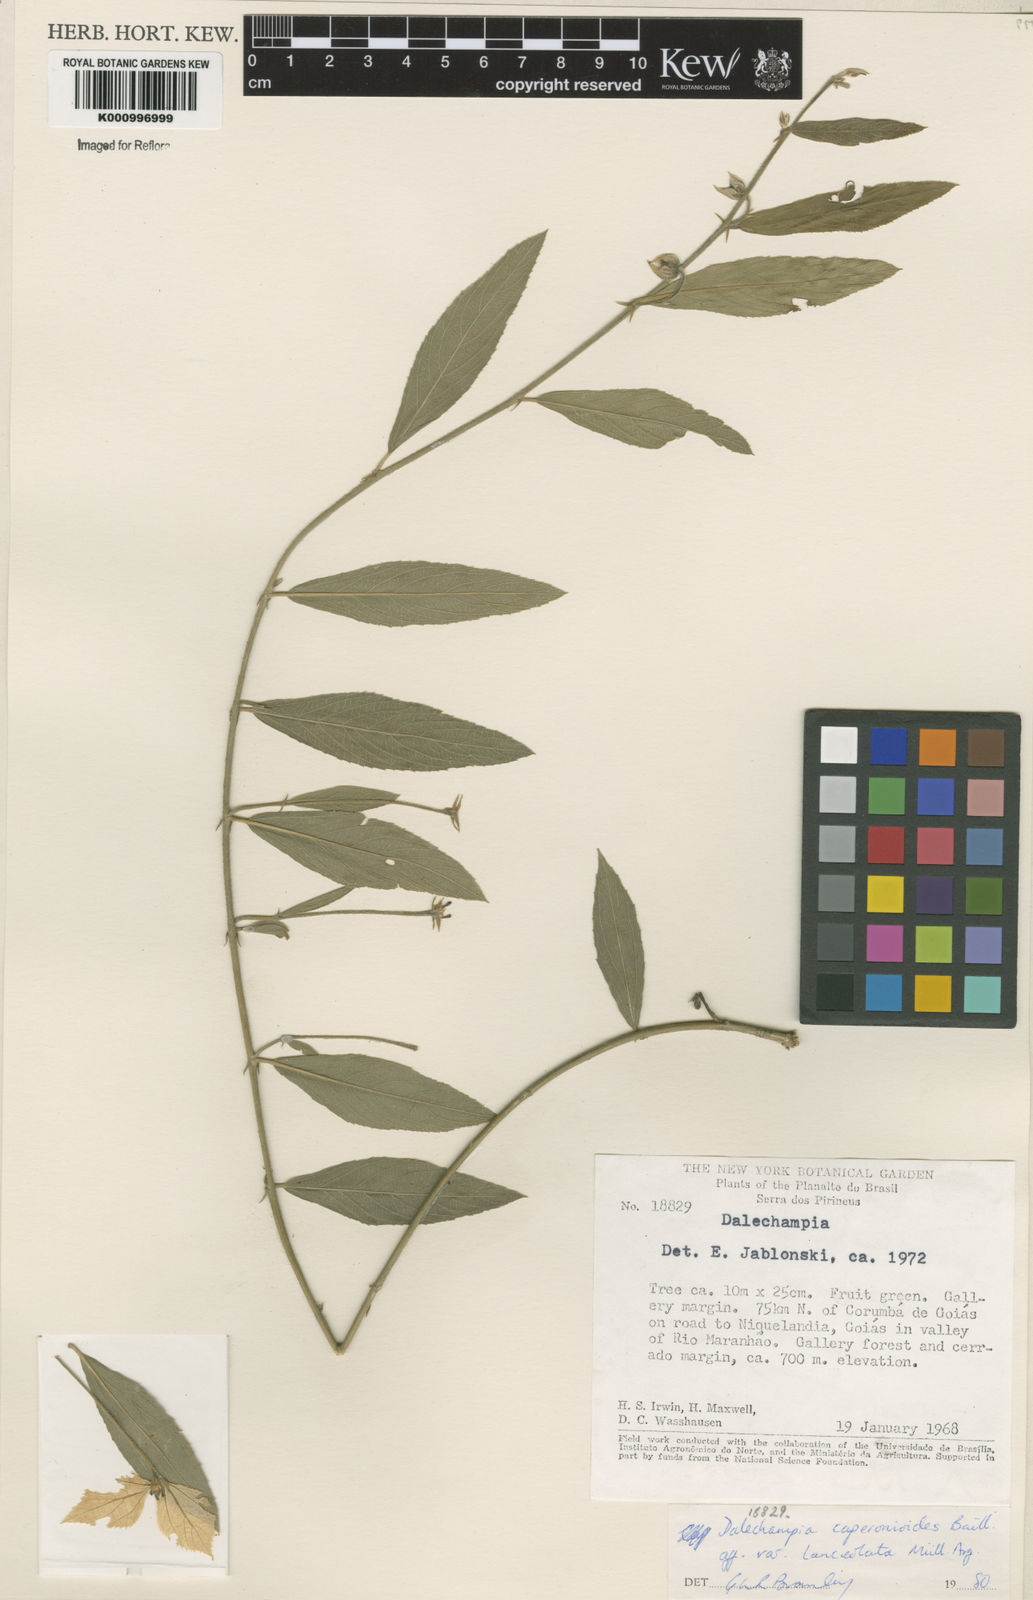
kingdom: Plantae
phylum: Tracheophyta
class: Magnoliopsida
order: Malpighiales
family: Euphorbiaceae
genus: Dalechampia
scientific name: Dalechampia caperonioides
